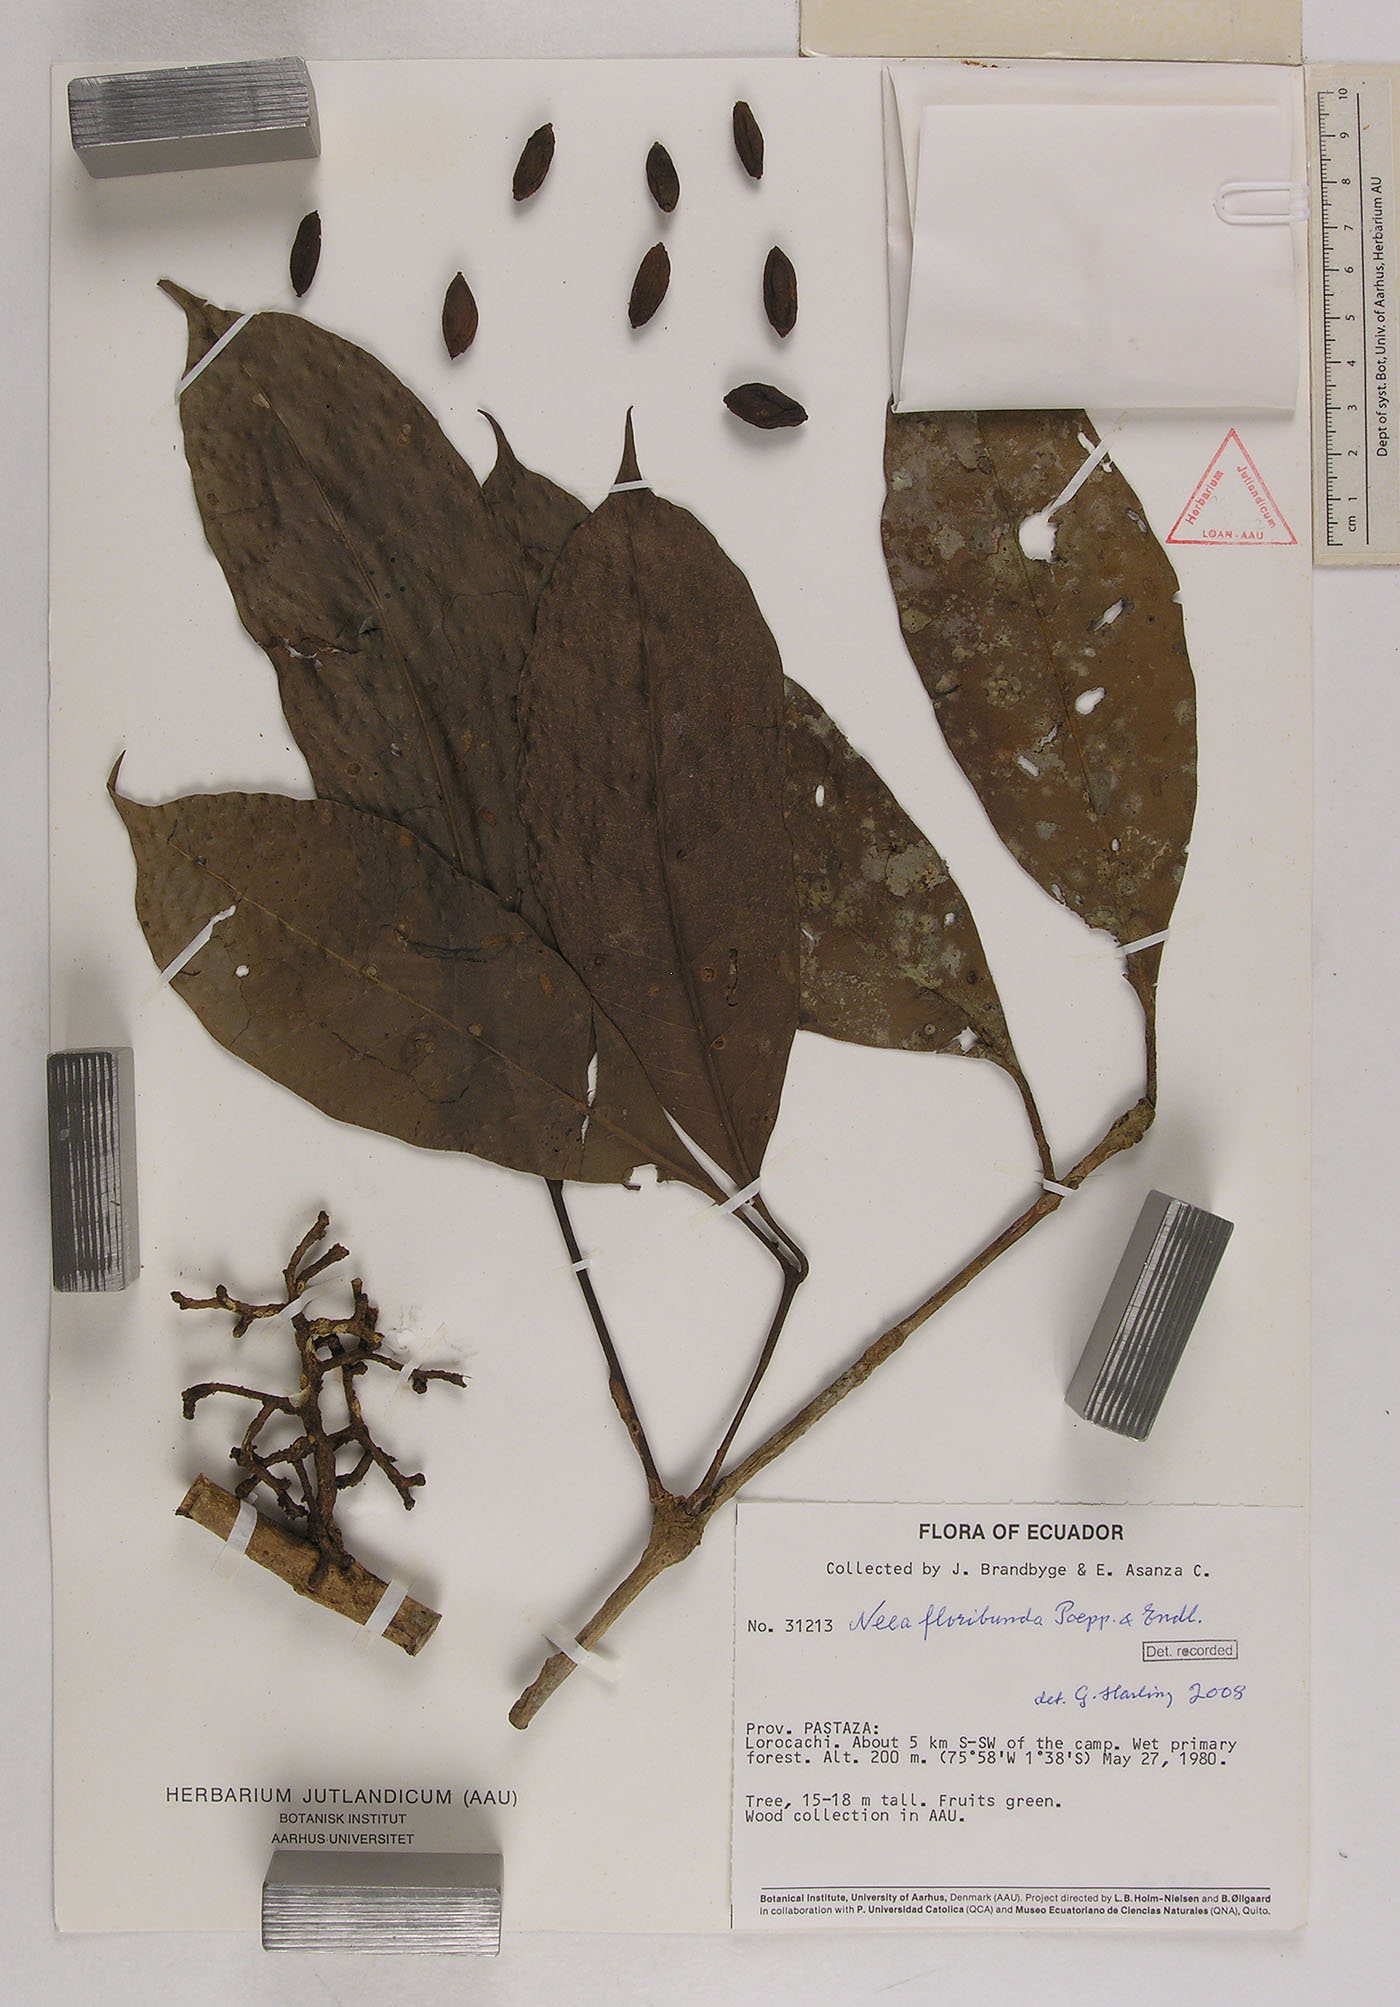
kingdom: Plantae
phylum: Tracheophyta
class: Magnoliopsida
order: Caryophyllales
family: Nyctaginaceae
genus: Neea
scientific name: Neea floribunda
